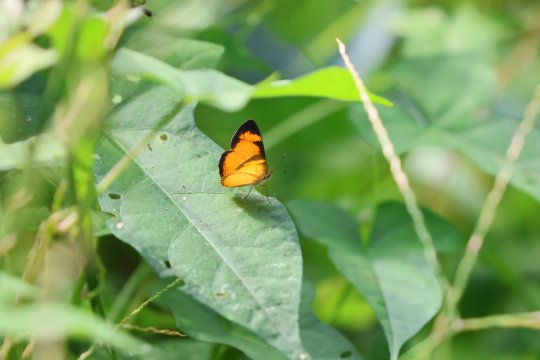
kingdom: Animalia
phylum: Arthropoda
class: Insecta
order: Lepidoptera
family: Nymphalidae
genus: Tegosa
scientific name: Tegosa anieta
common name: Black-bordered Crescent
